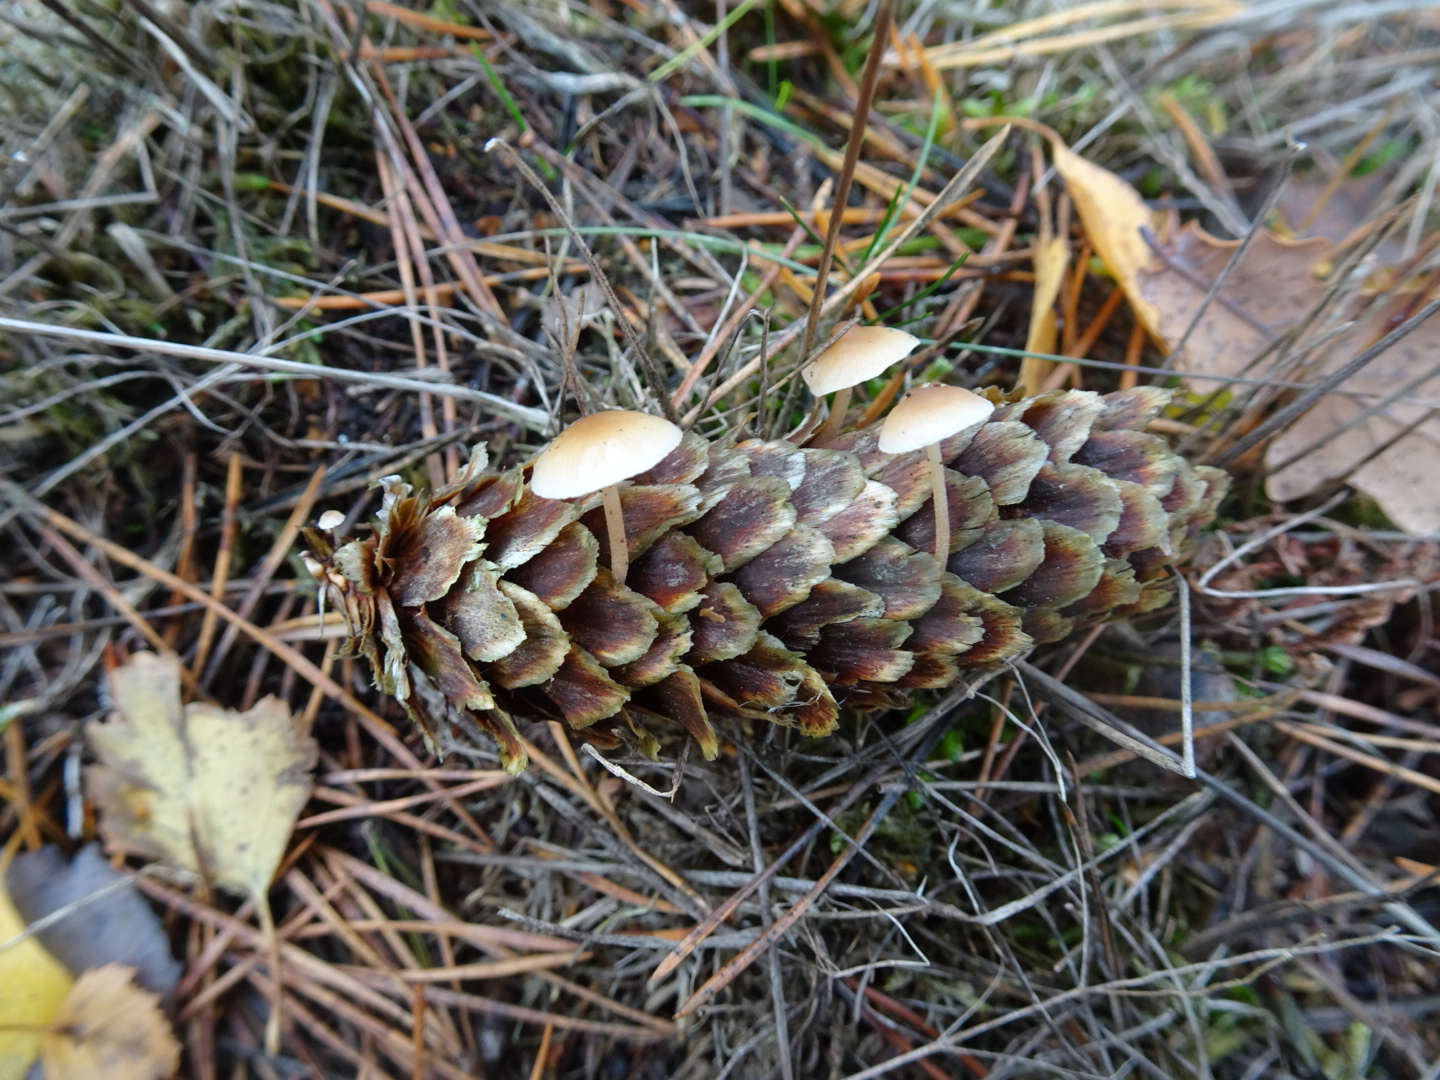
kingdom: Fungi
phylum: Basidiomycota
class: Agaricomycetes
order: Agaricales
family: Marasmiaceae
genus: Baeospora
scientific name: Baeospora myosura
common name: koglebruskhat
